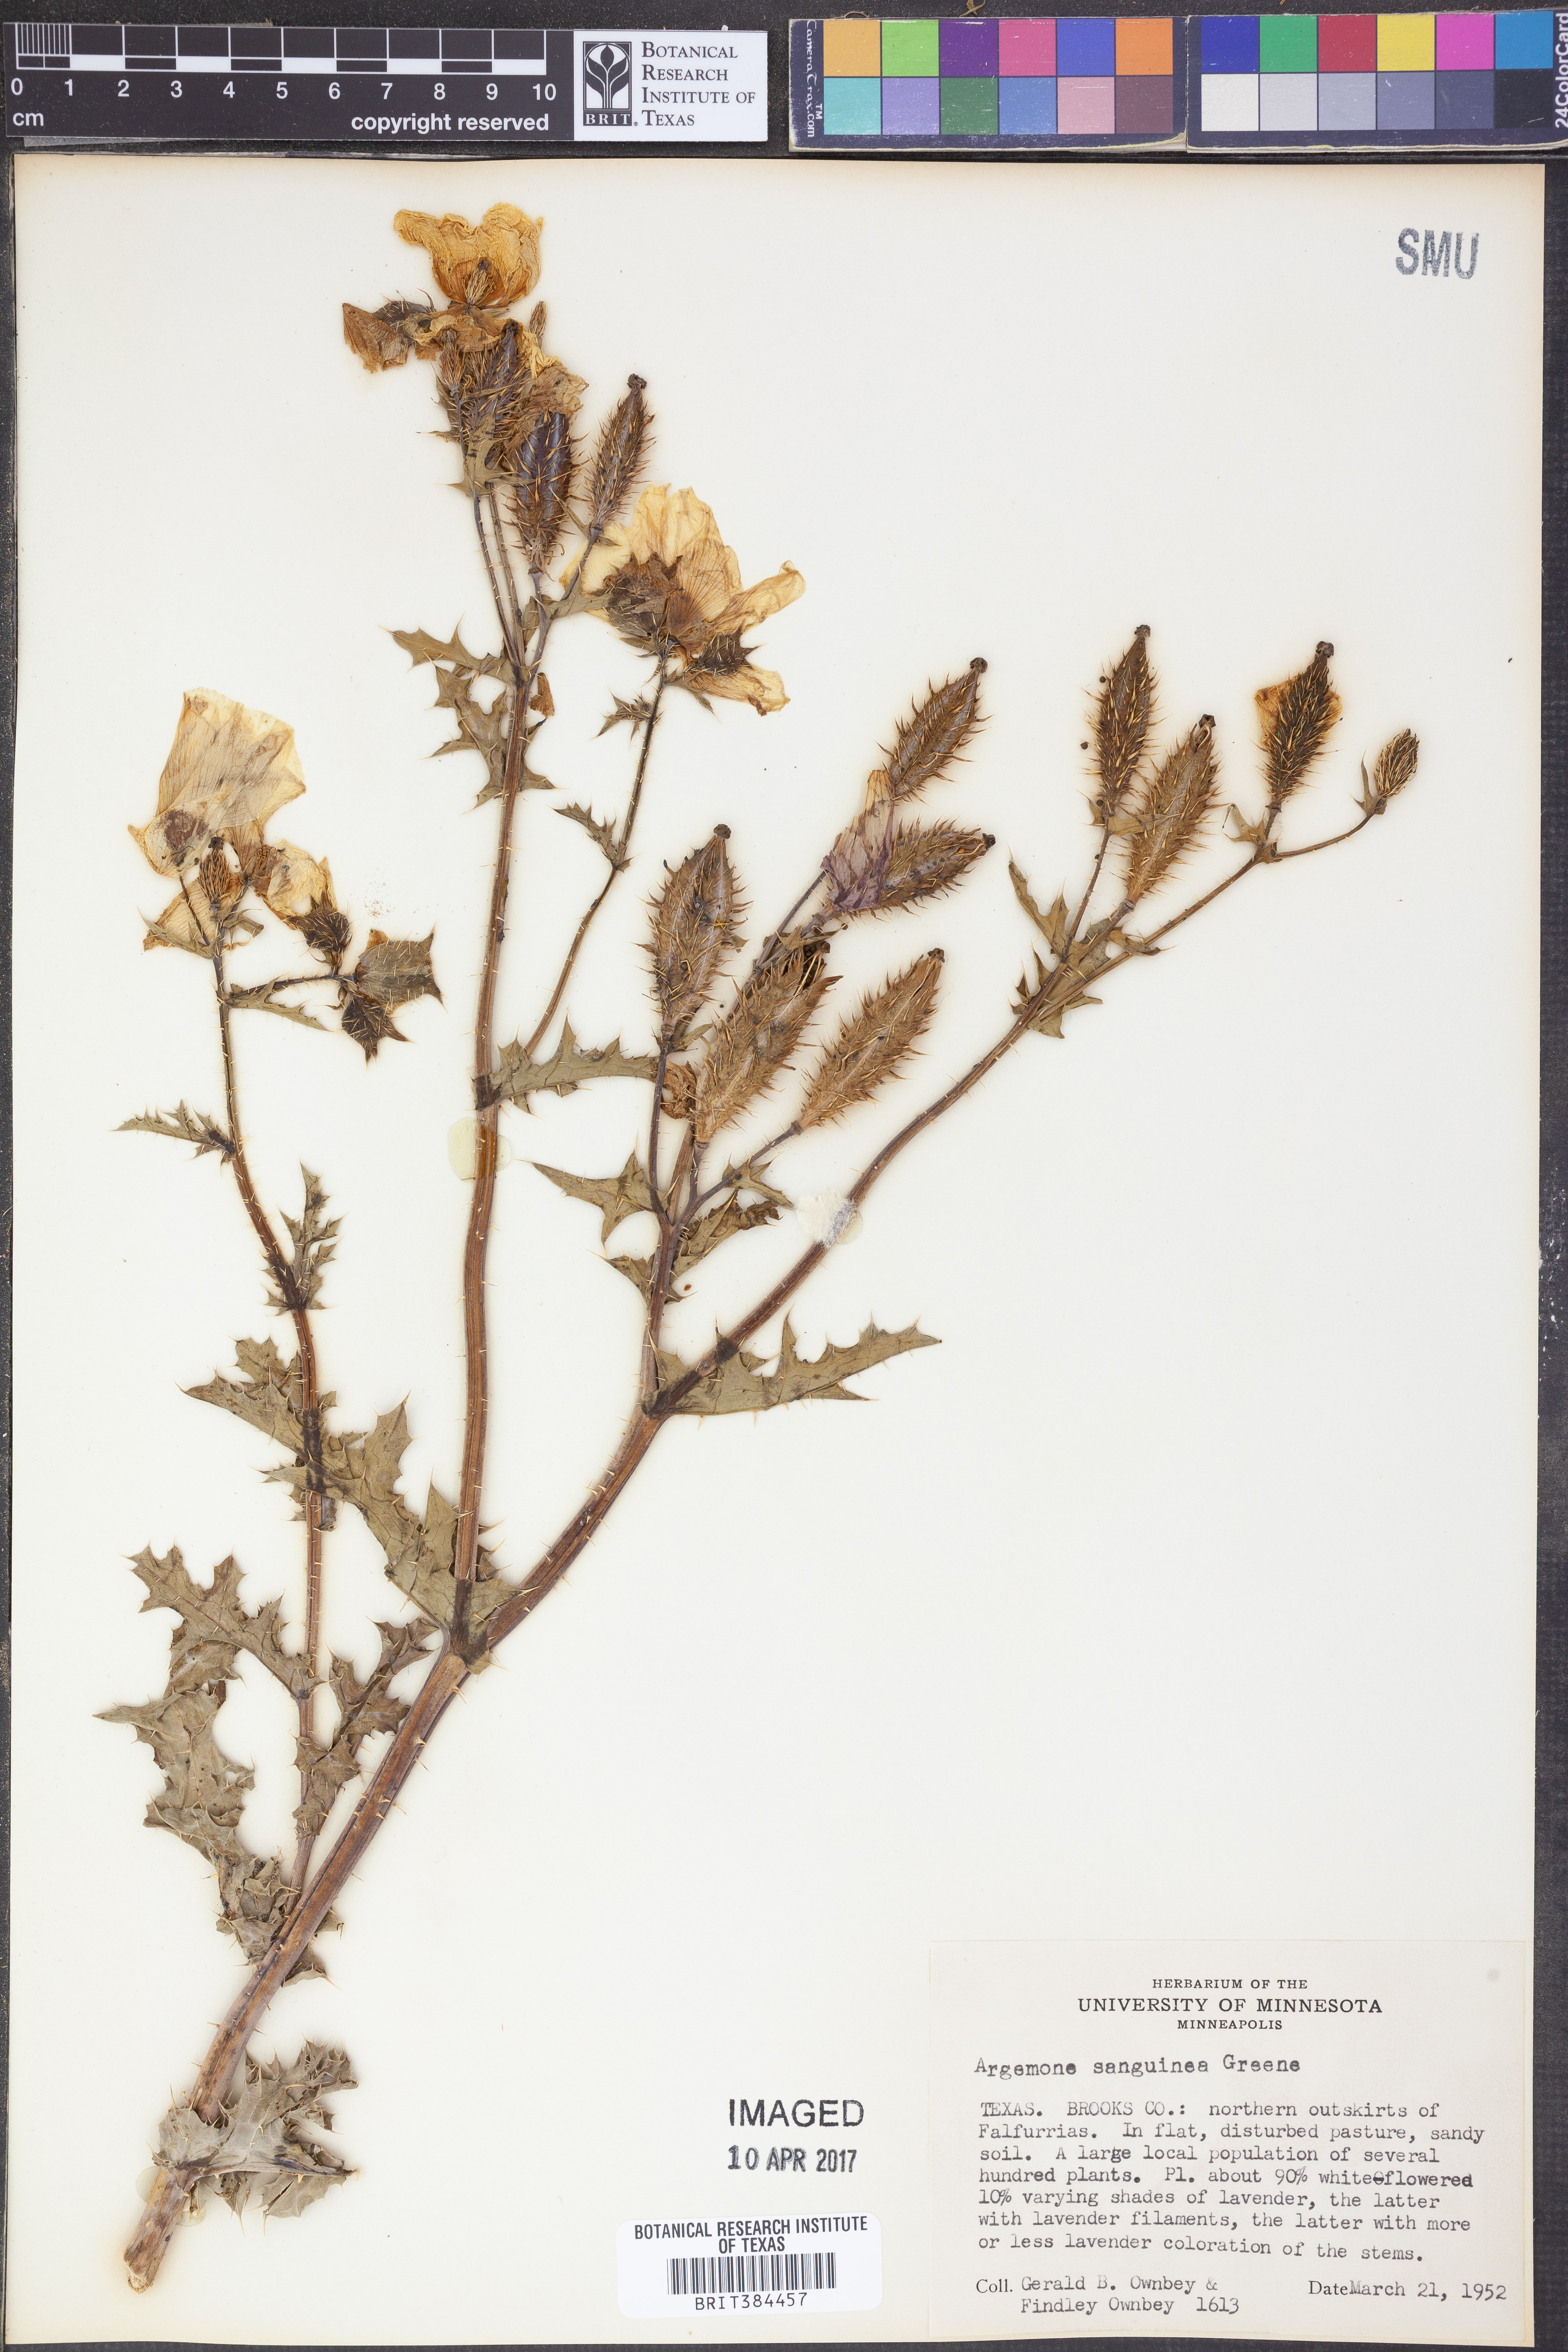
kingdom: Plantae
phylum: Tracheophyta
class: Magnoliopsida
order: Ranunculales
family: Papaveraceae
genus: Argemone
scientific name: Argemone sanguinea
